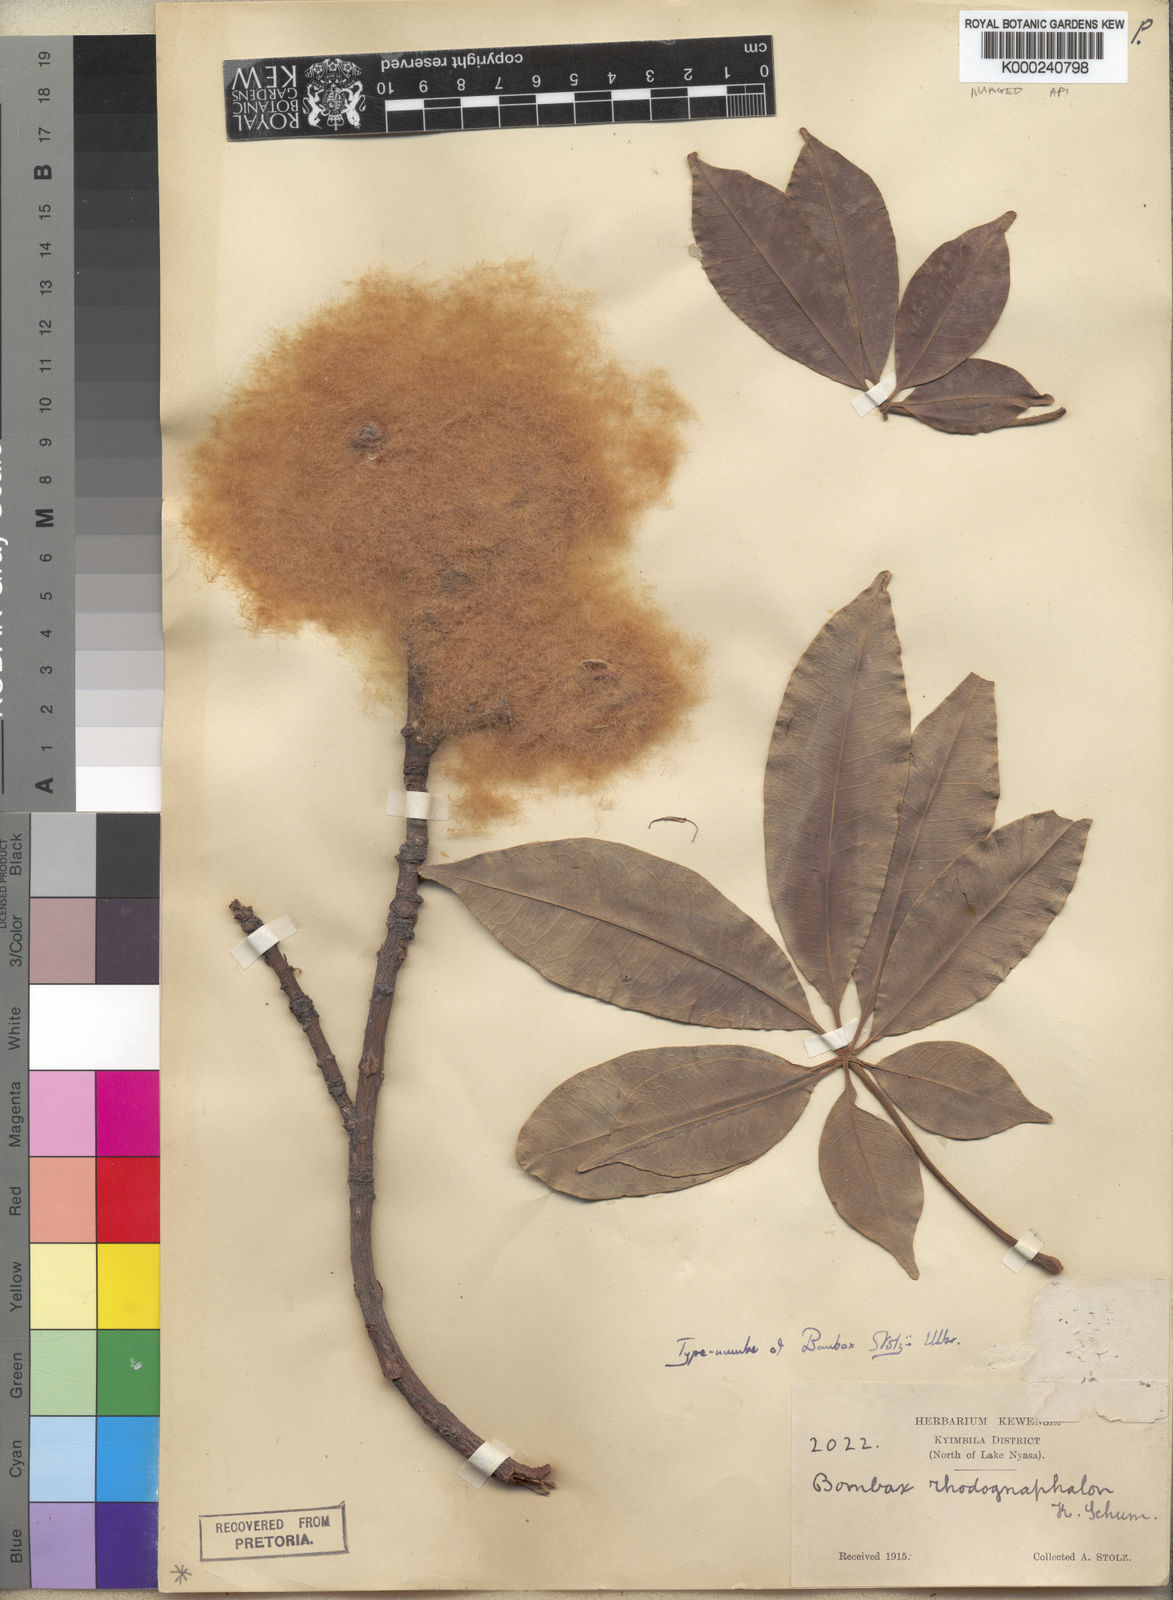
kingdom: Plantae
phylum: Tracheophyta
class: Magnoliopsida
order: Malvales
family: Malvaceae
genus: Rhodognaphalon
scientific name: Rhodognaphalon stolzii
